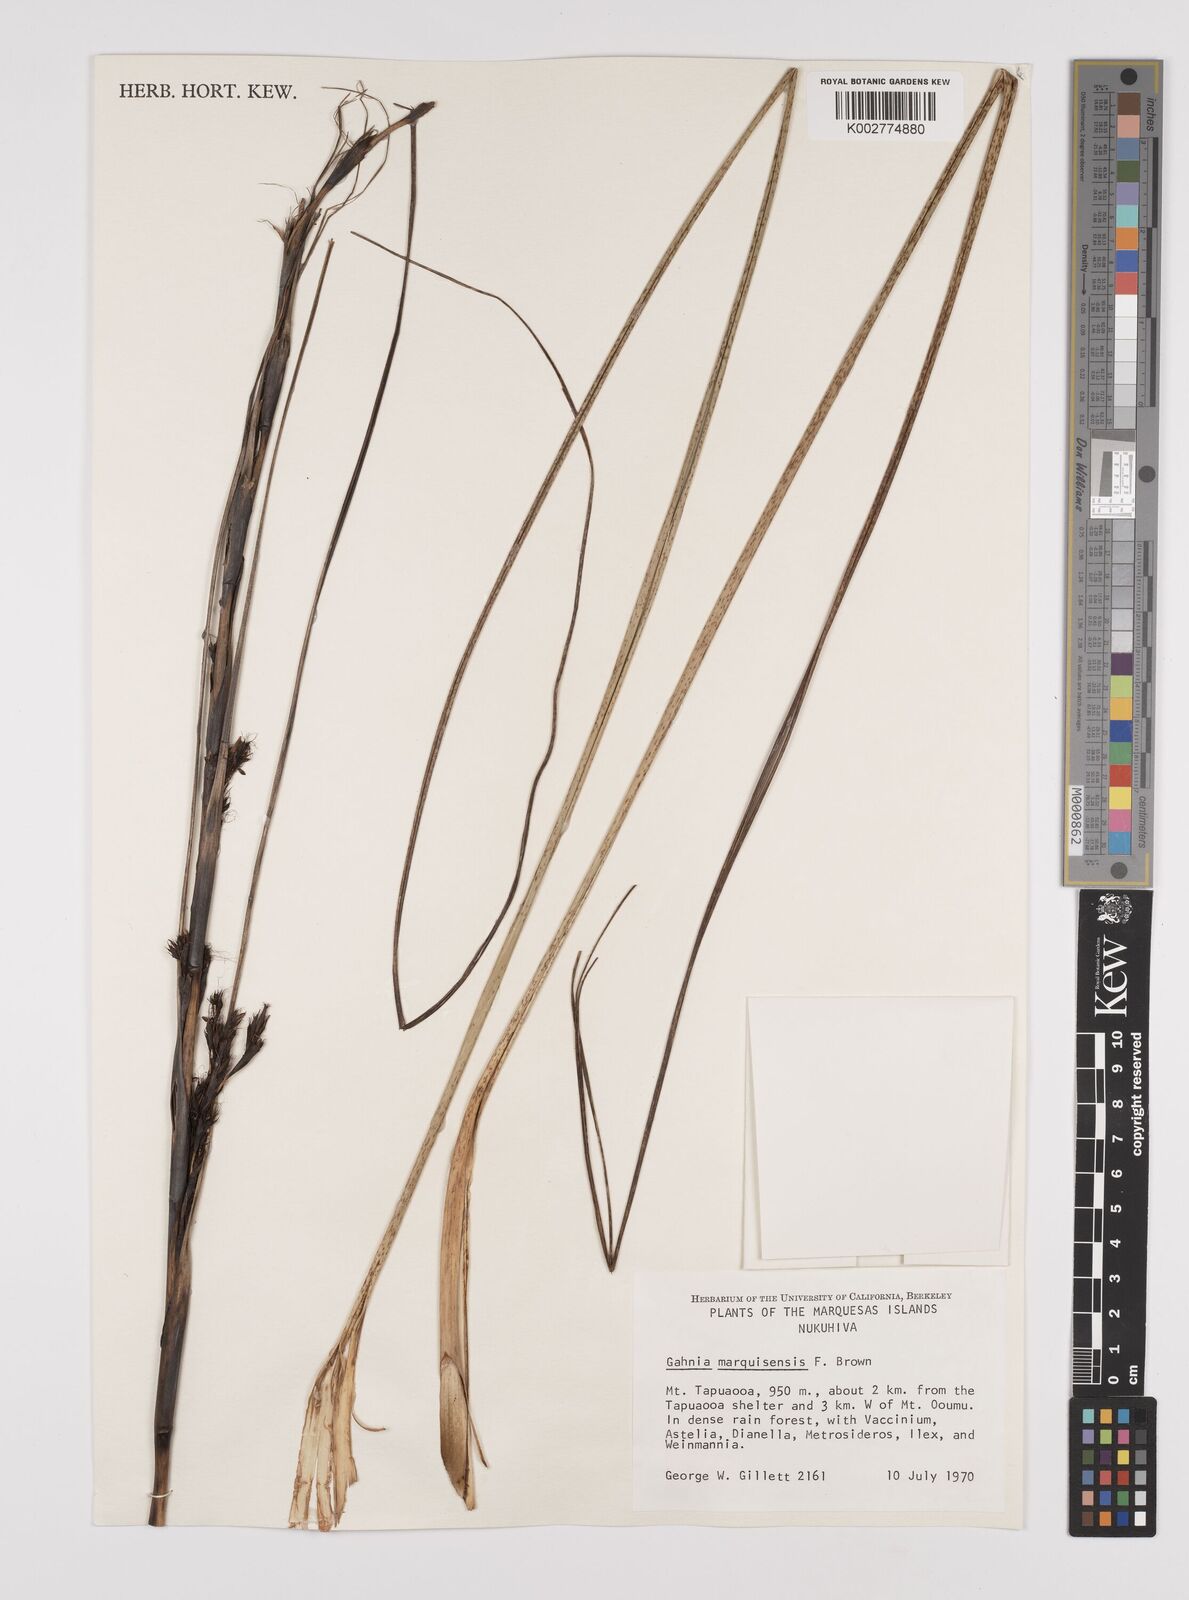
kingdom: Plantae
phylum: Tracheophyta
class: Liliopsida
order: Poales
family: Cyperaceae
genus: Gahnia
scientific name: Gahnia marquisensis
